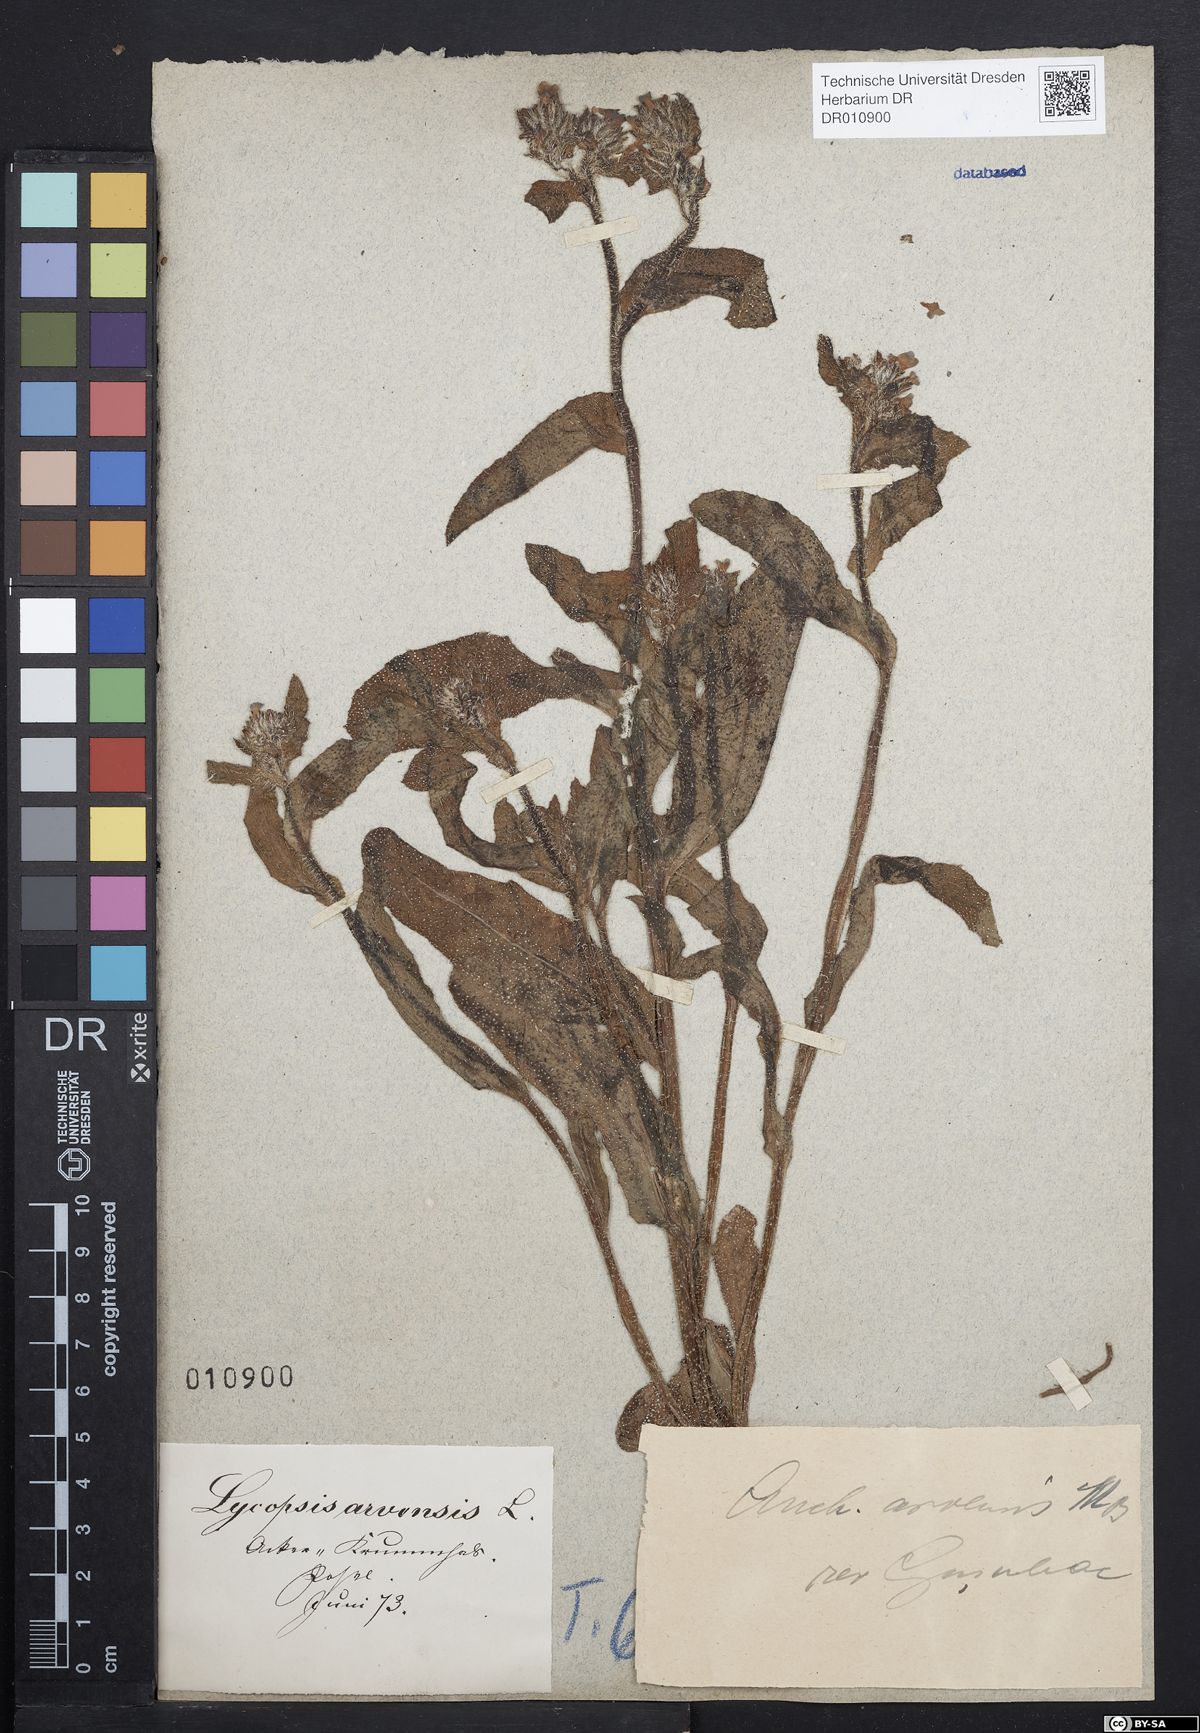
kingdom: Plantae
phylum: Tracheophyta
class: Magnoliopsida
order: Boraginales
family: Boraginaceae
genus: Lycopsis
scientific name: Lycopsis arvensis
